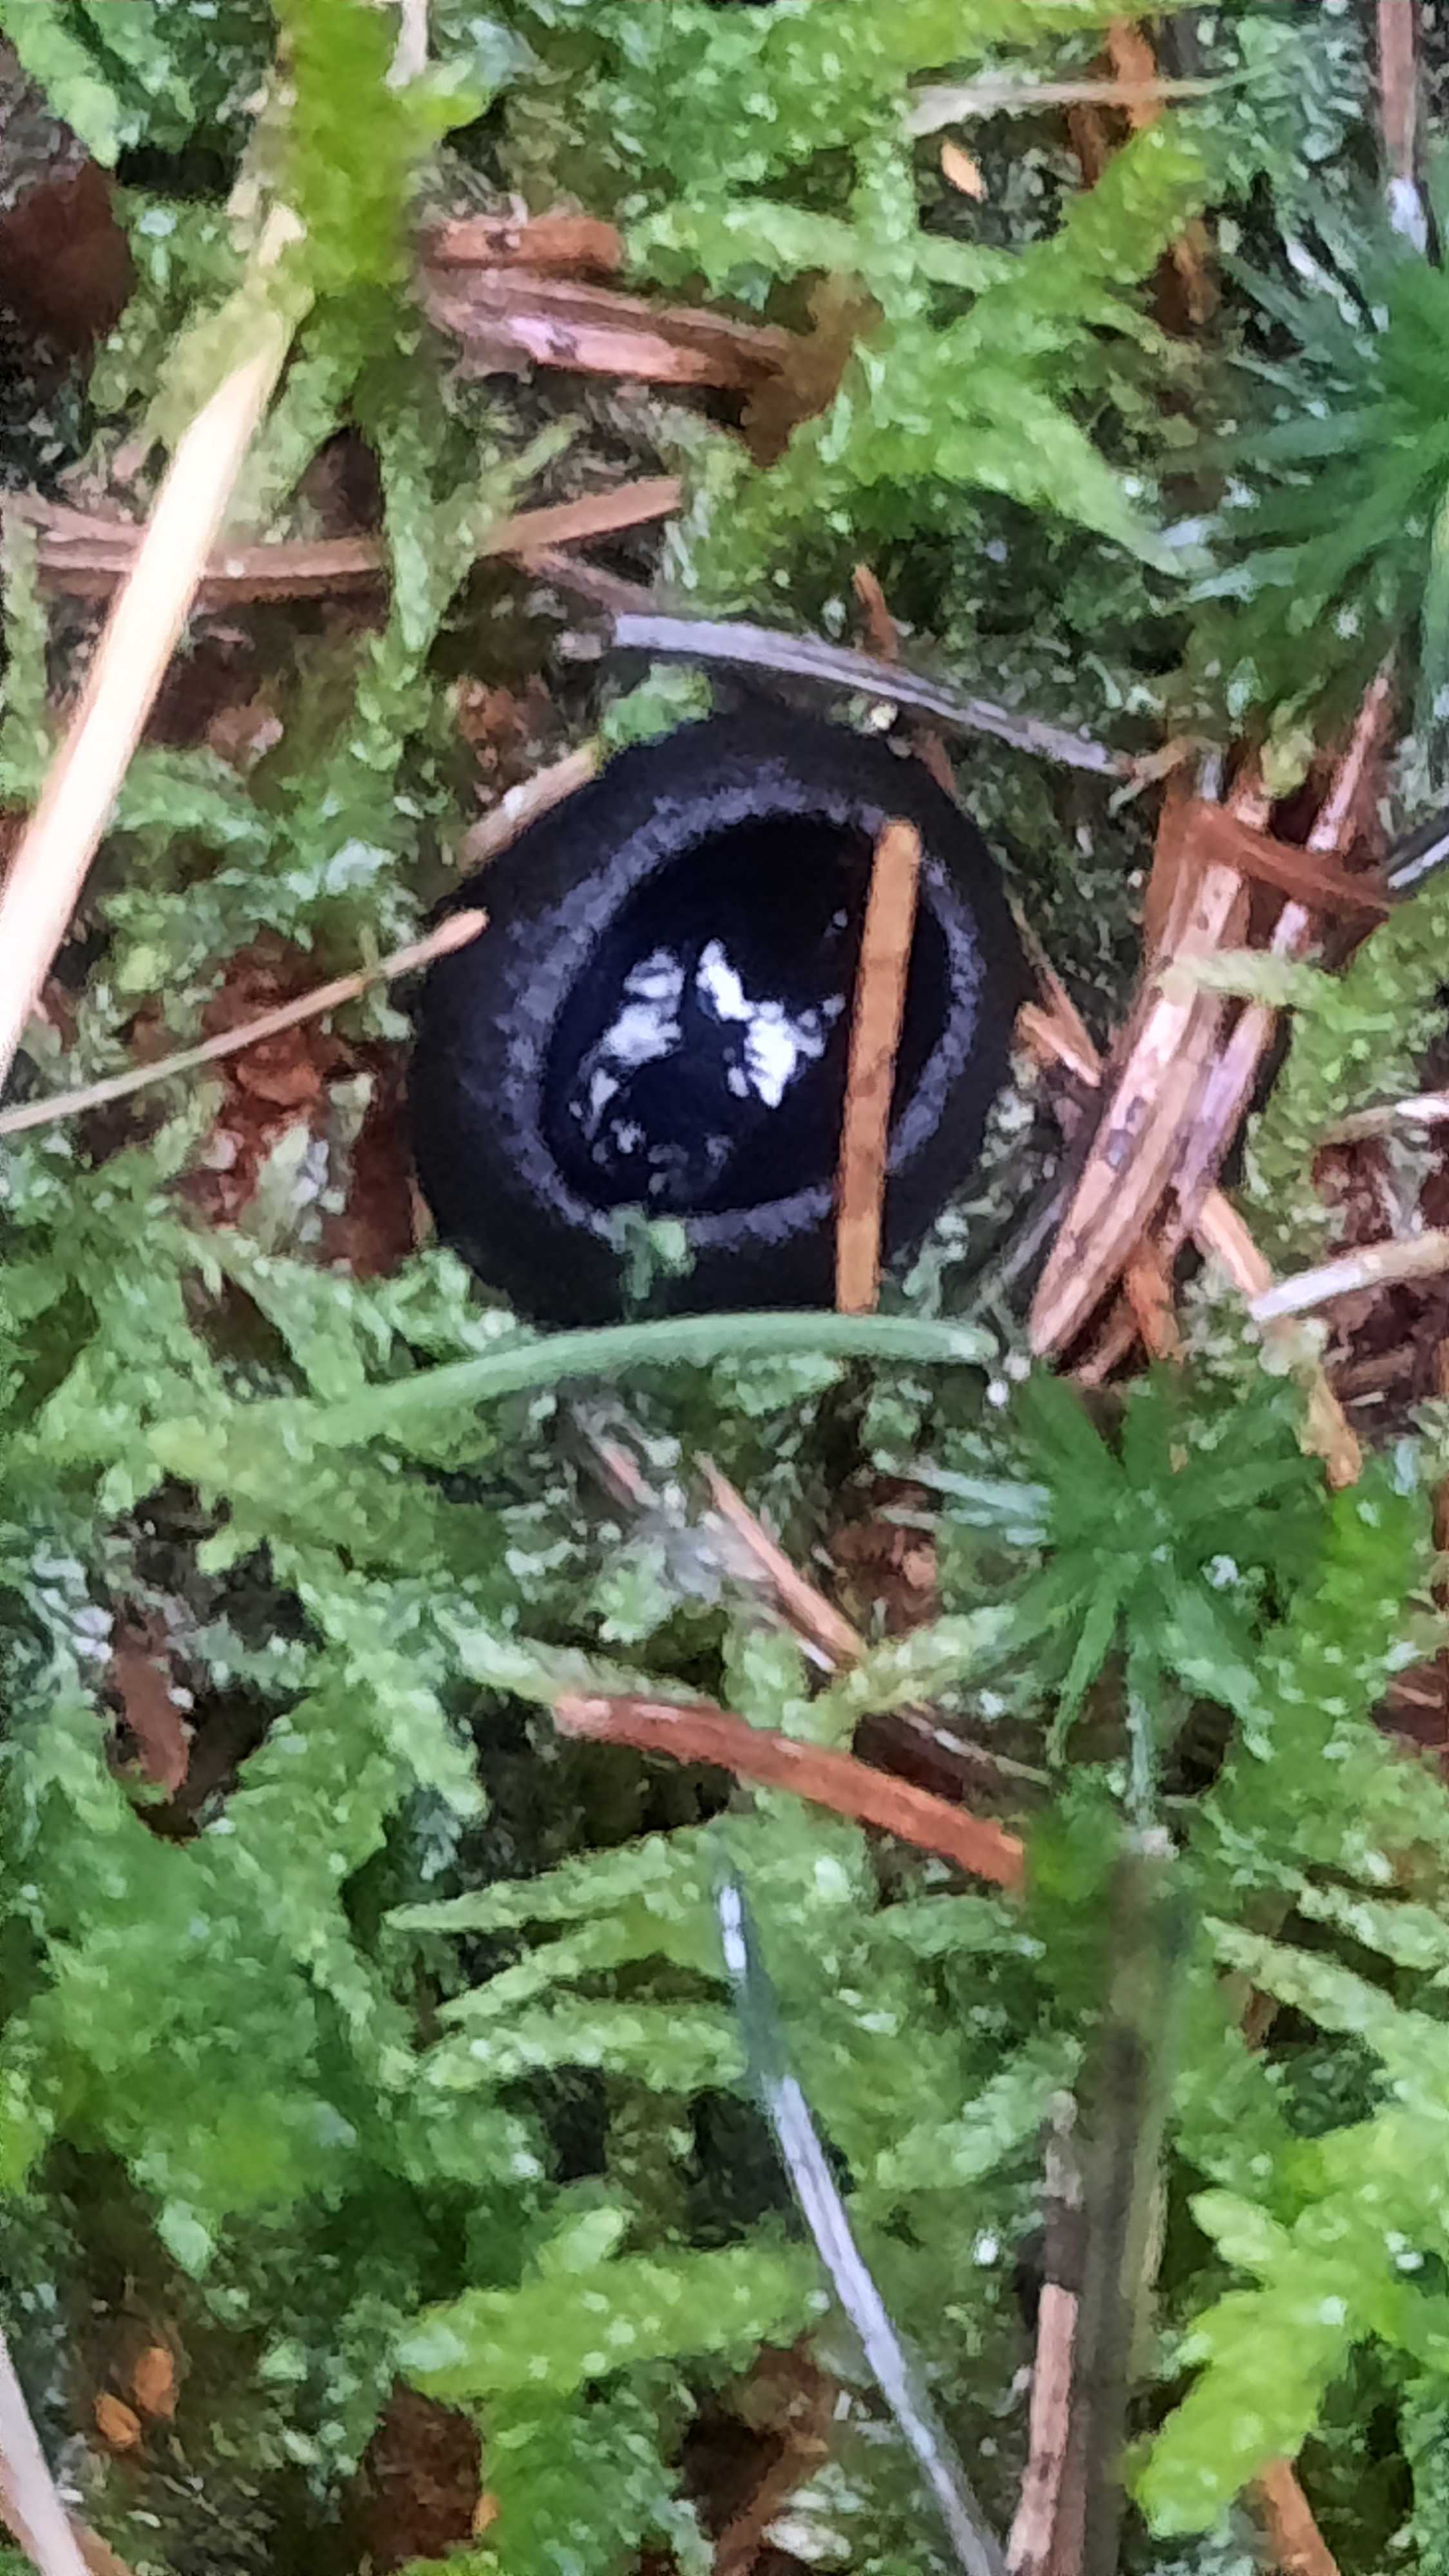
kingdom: Fungi
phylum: Ascomycota
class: Pezizomycetes
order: Pezizales
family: Sarcosomataceae
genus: Pseudoplectania
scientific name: Pseudoplectania nigrella
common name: almindelig sortbæger
